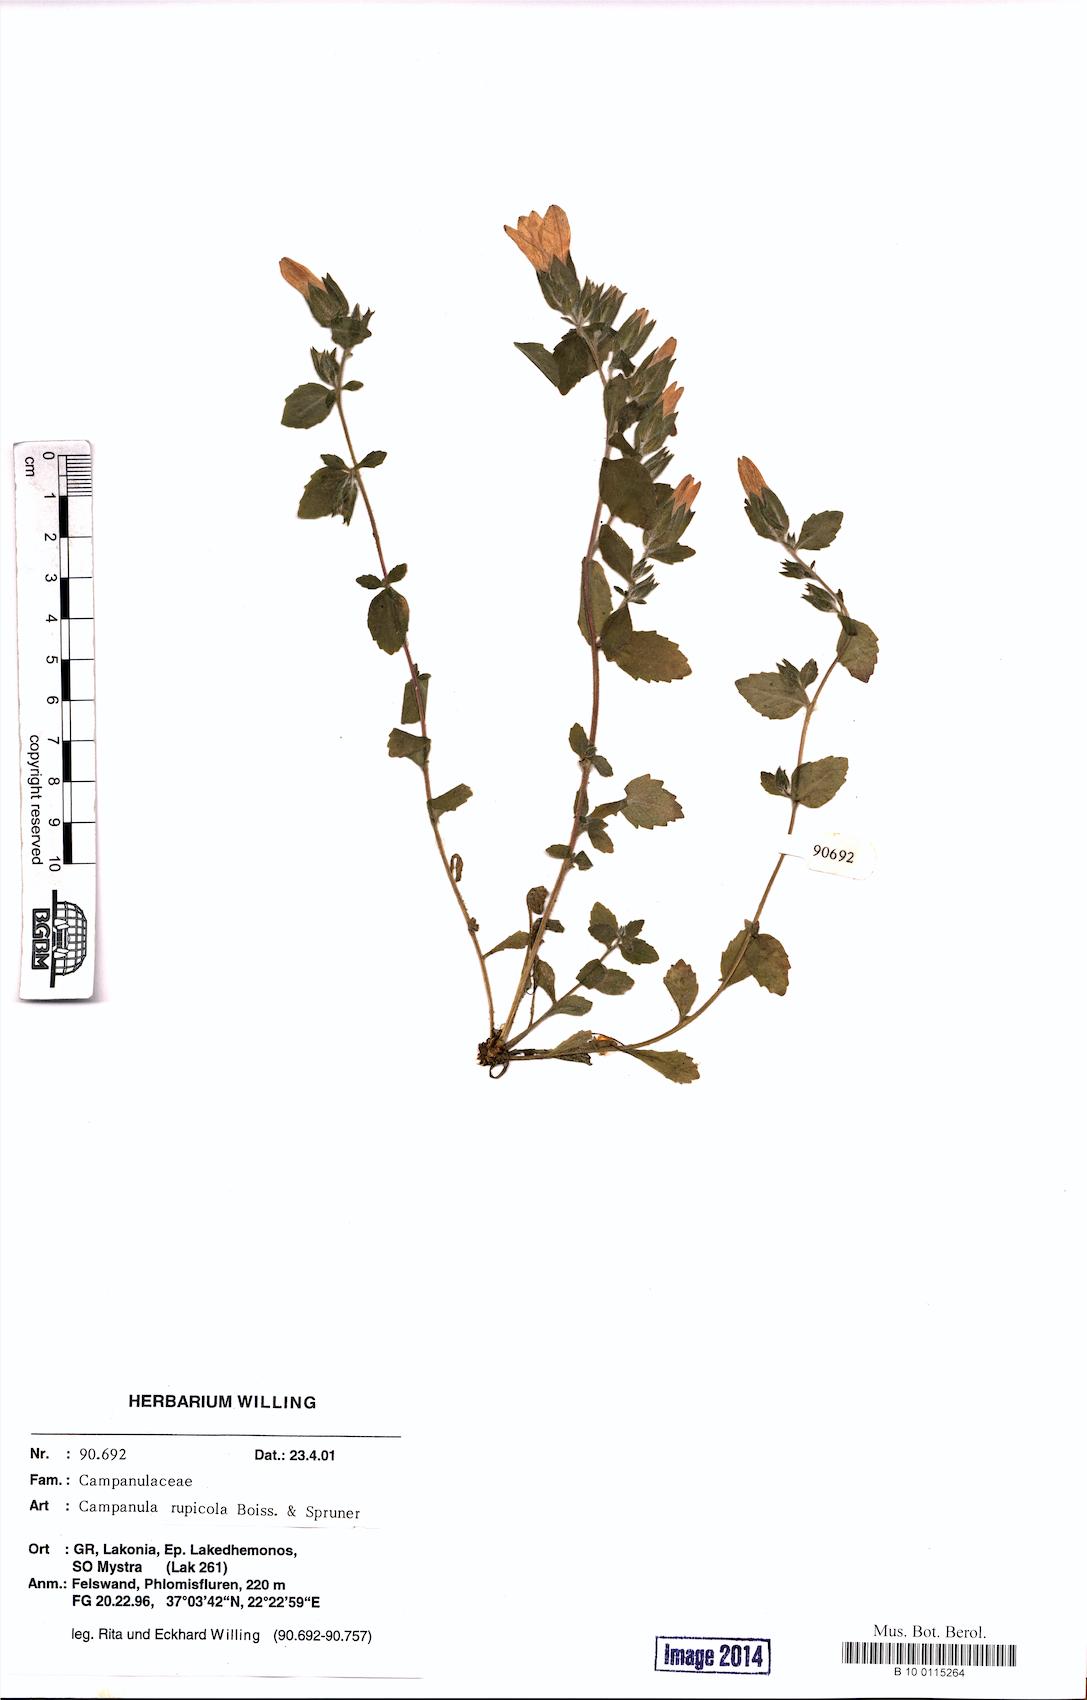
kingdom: Plantae
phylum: Tracheophyta
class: Magnoliopsida
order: Asterales
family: Campanulaceae
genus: Campanula
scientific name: Campanula rupicola
